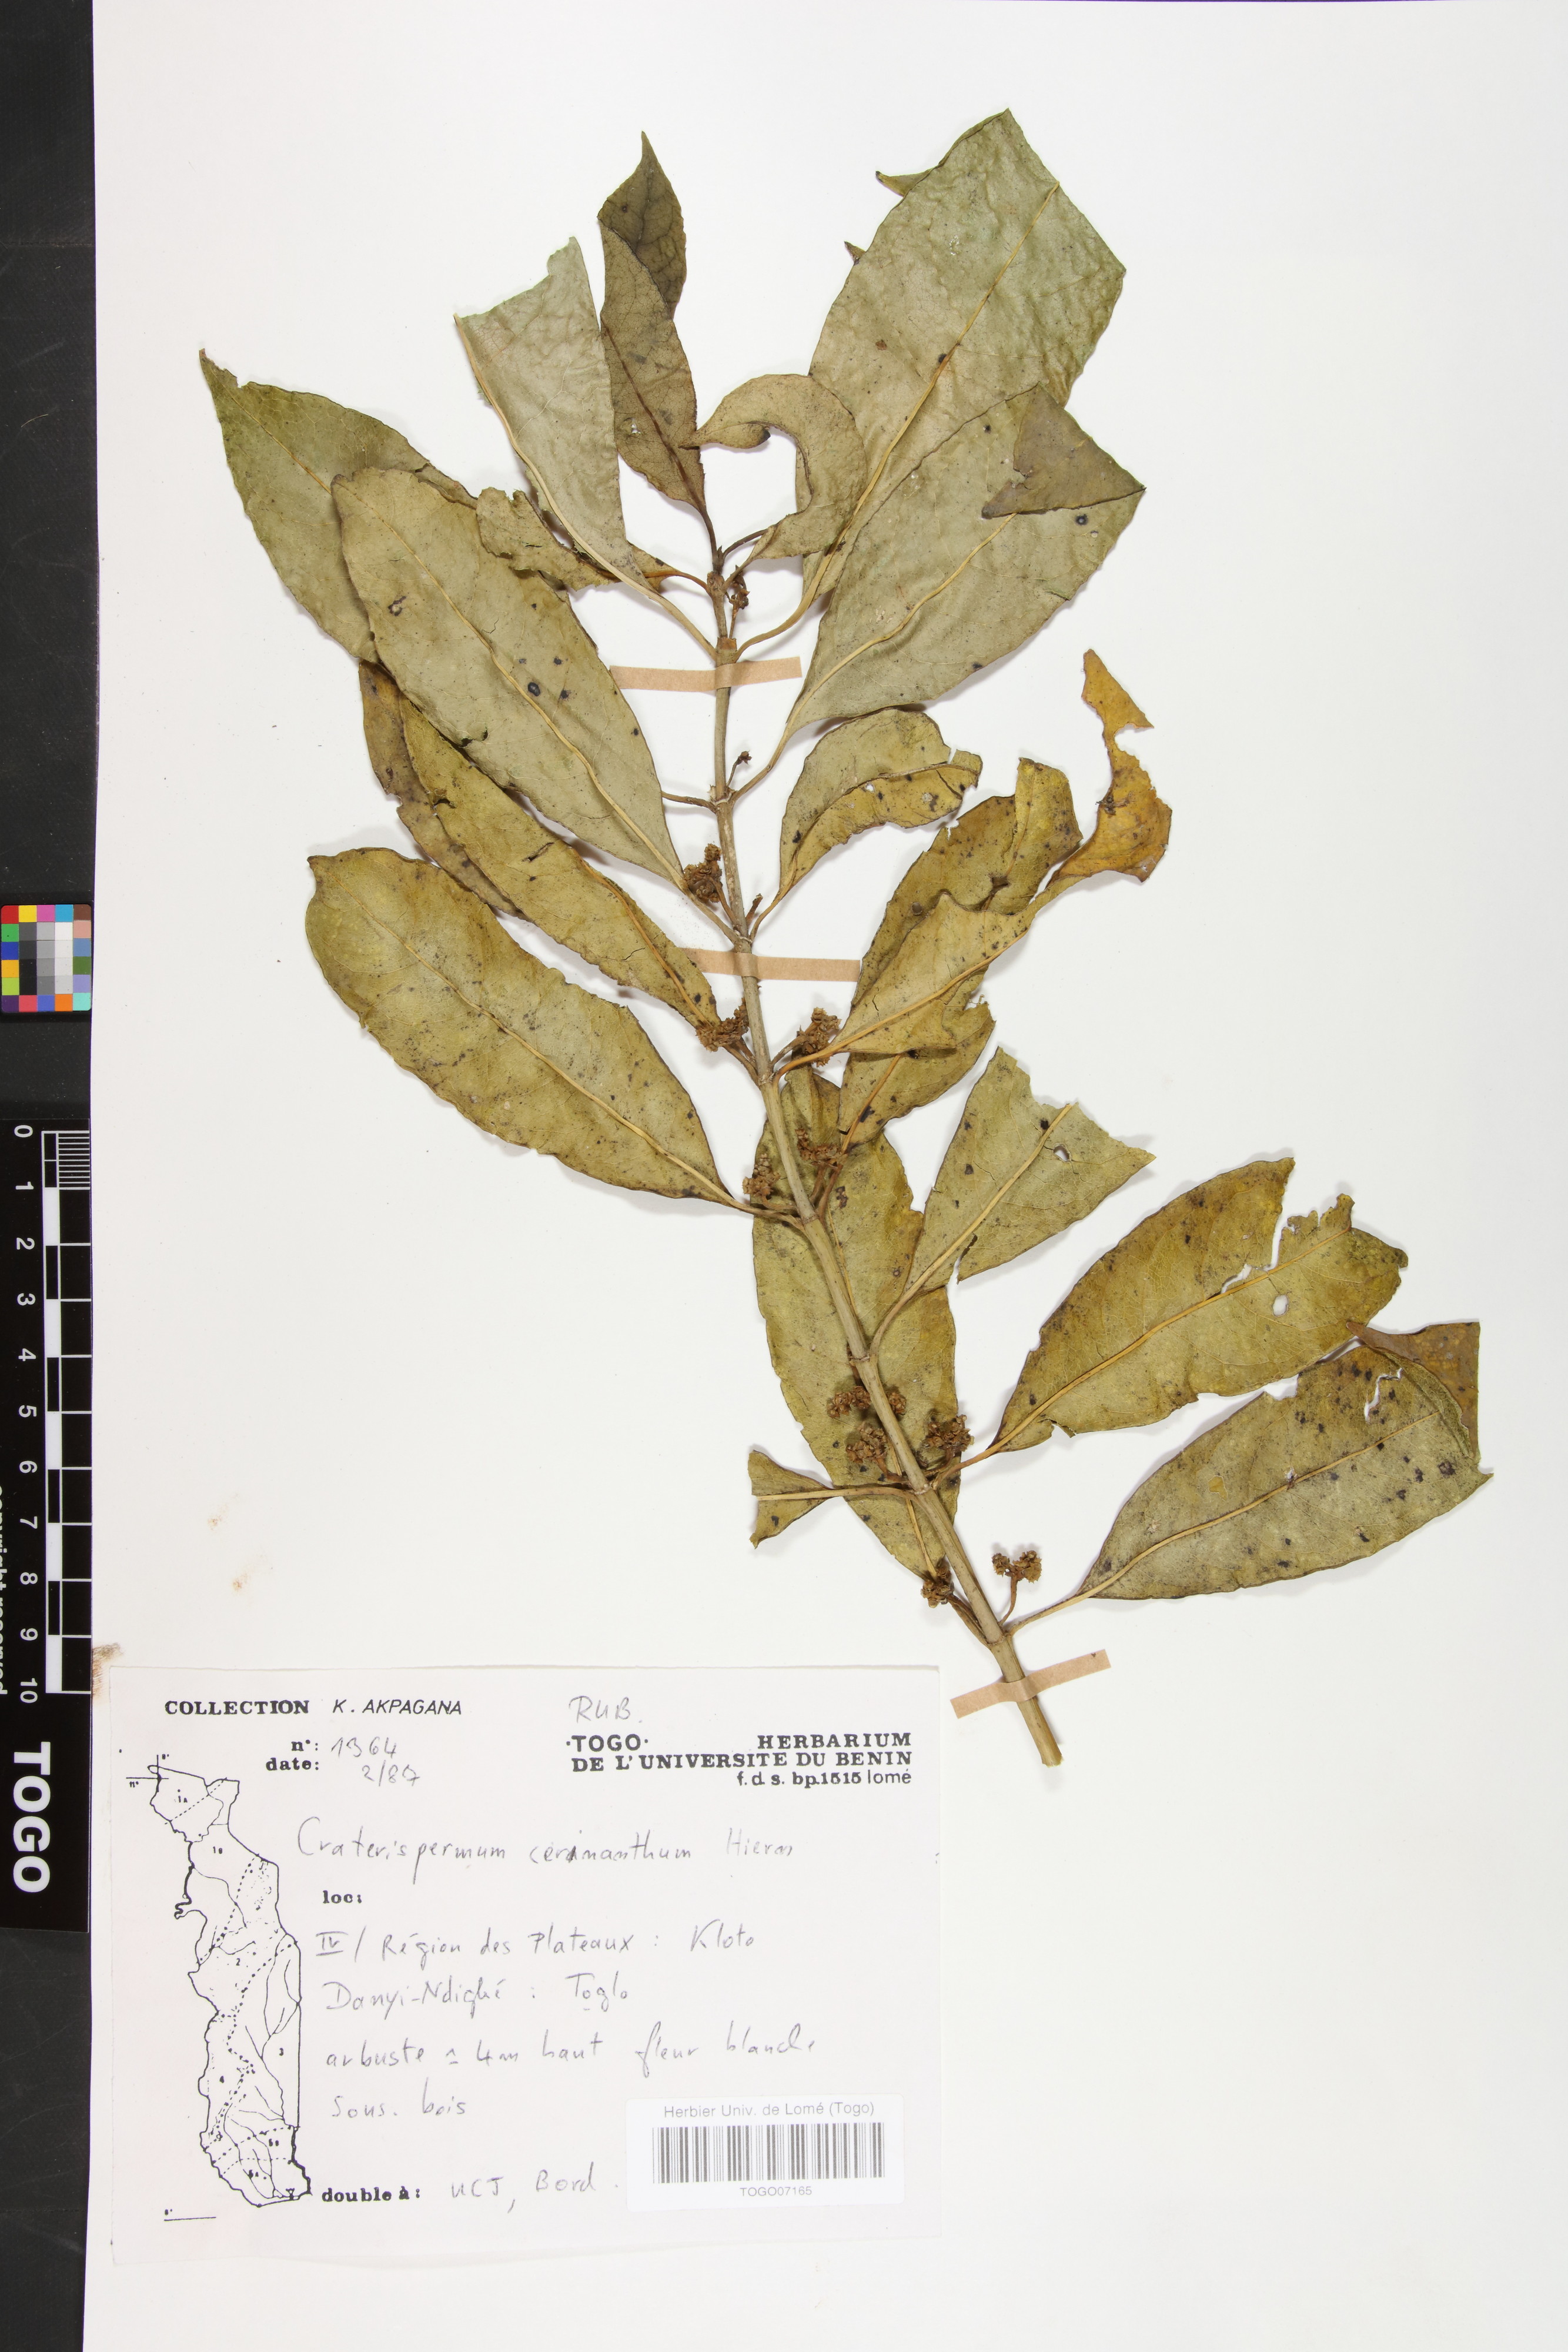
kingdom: Plantae
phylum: Tracheophyta
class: Magnoliopsida
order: Gentianales
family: Rubiaceae
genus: Craterispermum
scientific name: Craterispermum cerinanthum
